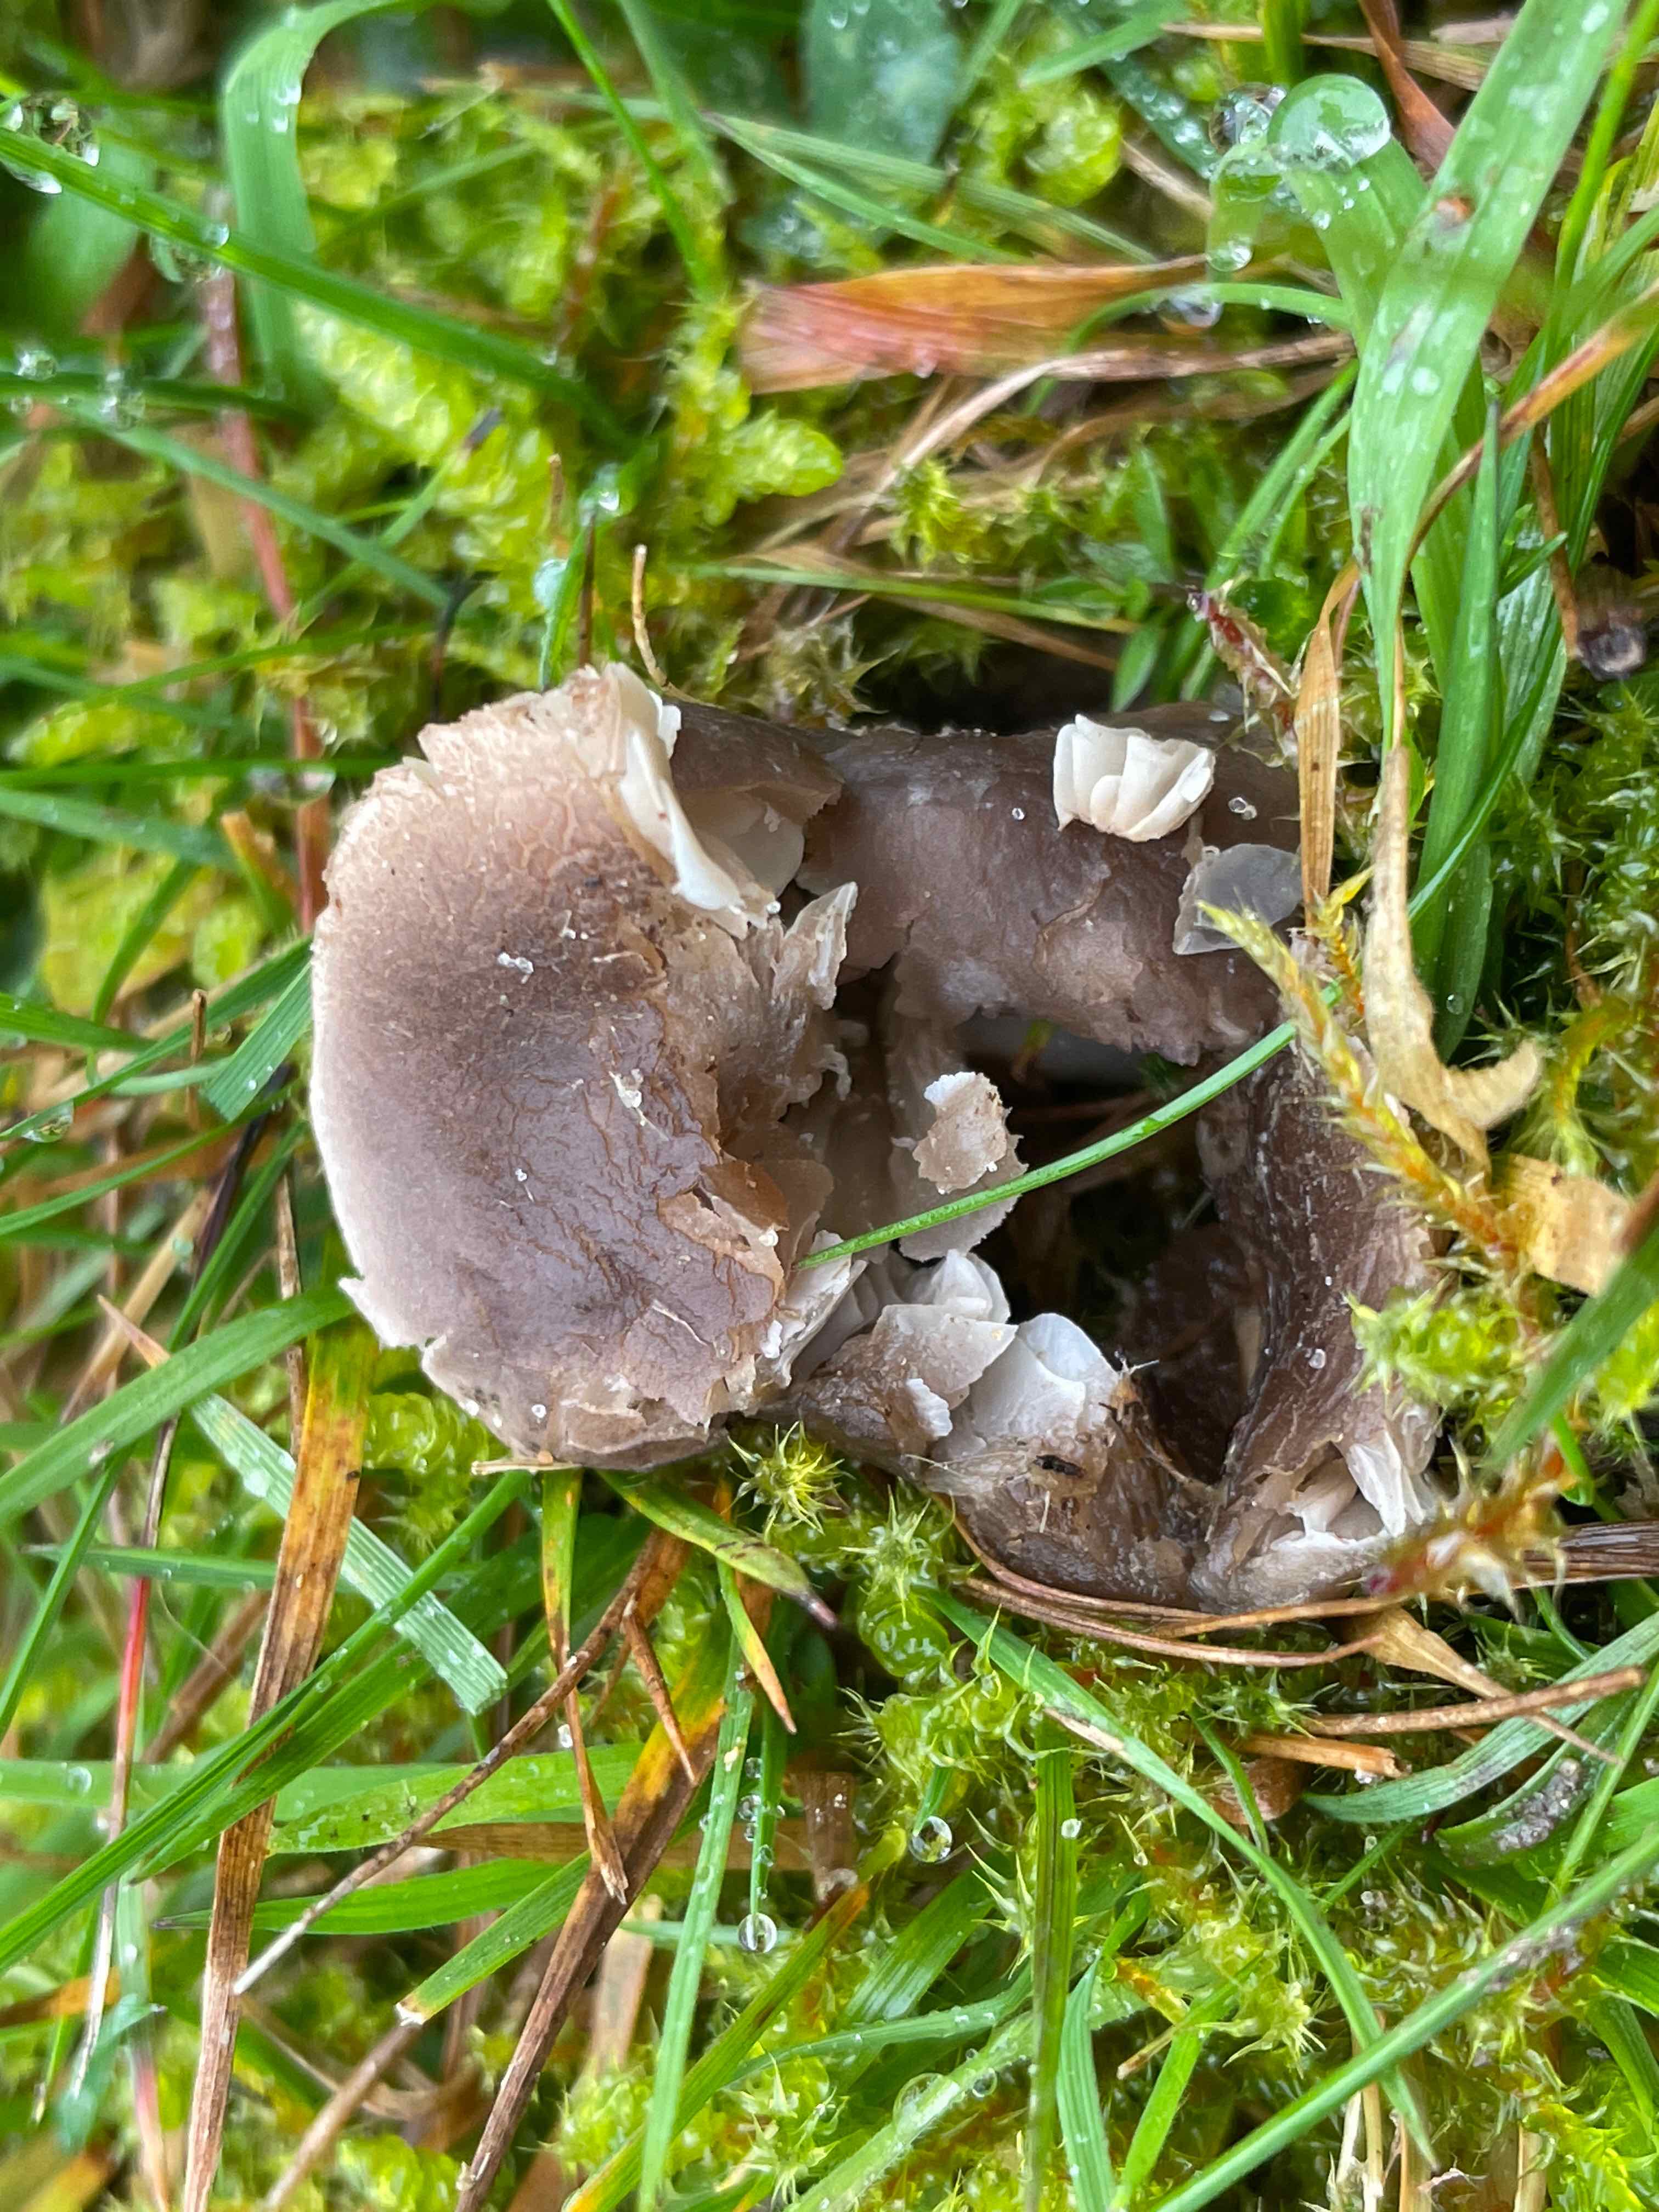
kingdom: Fungi
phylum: Basidiomycota
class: Agaricomycetes
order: Agaricales
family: Tricholomataceae
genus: Dermoloma
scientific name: Dermoloma
